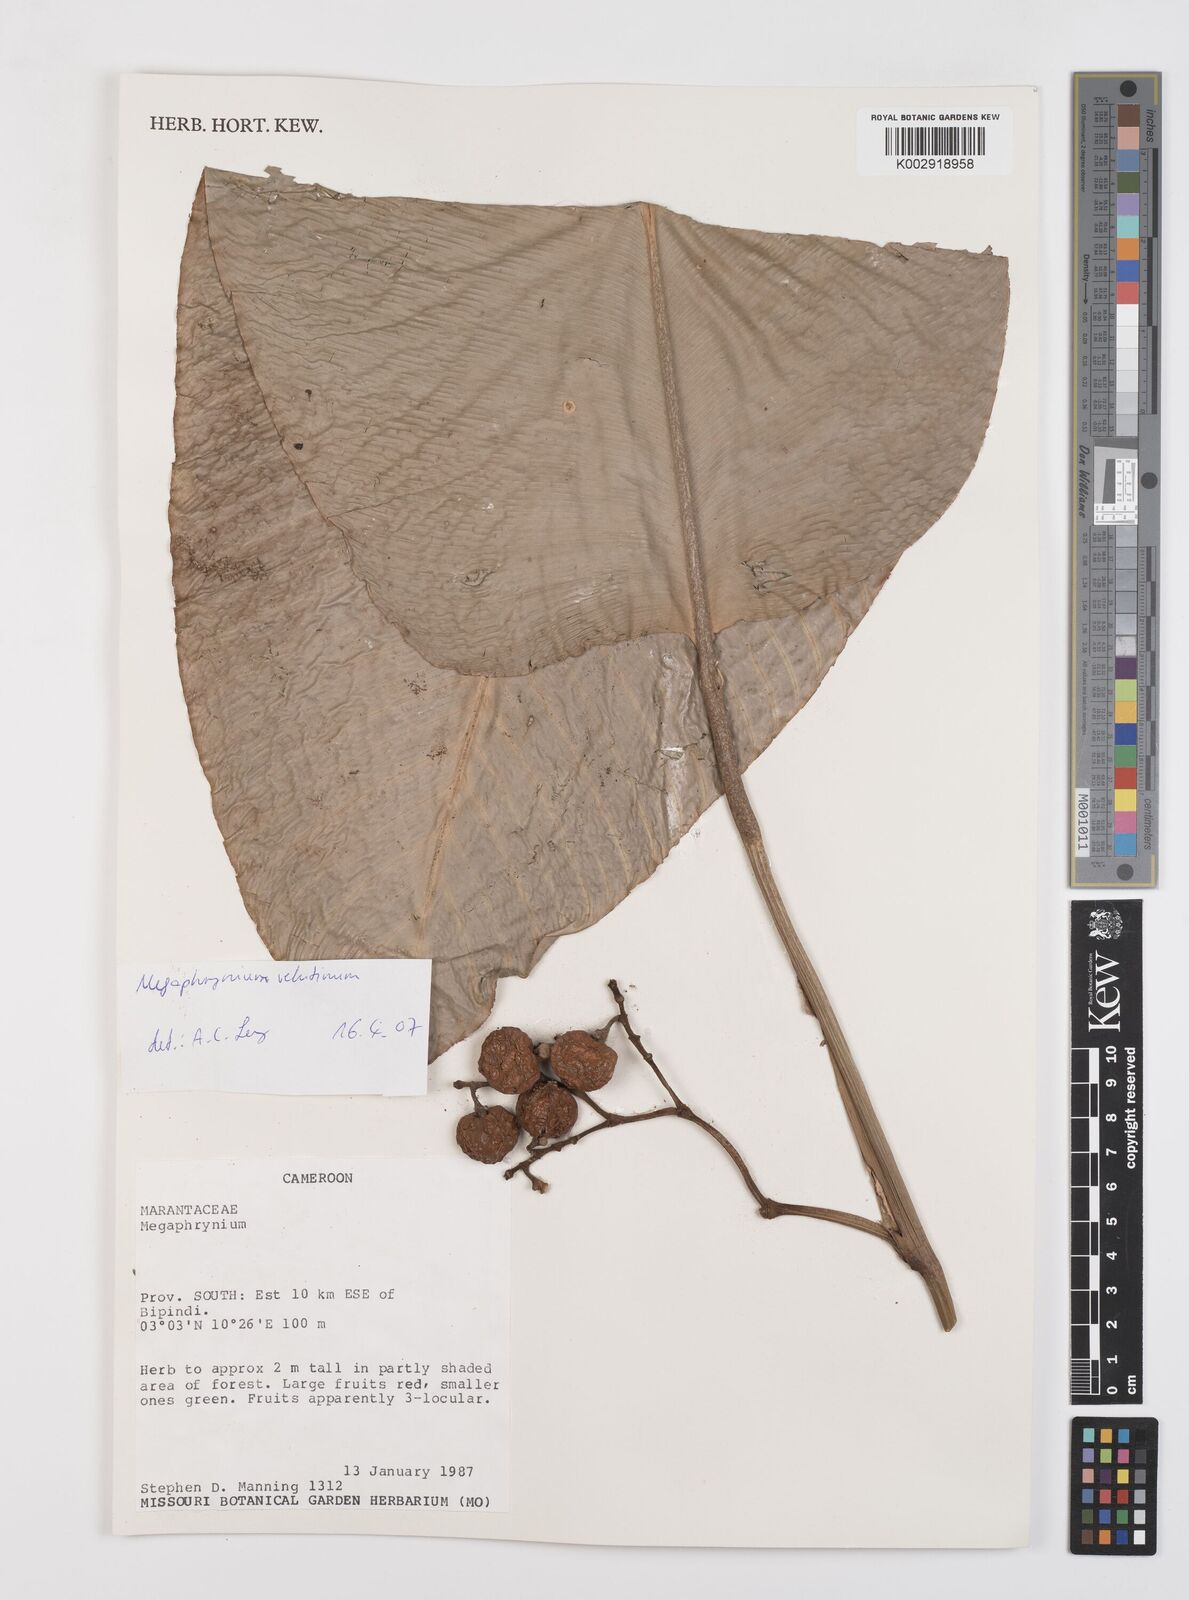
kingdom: Plantae
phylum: Tracheophyta
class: Liliopsida
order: Zingiberales
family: Marantaceae
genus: Megaphrynium
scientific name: Megaphrynium velutinum
